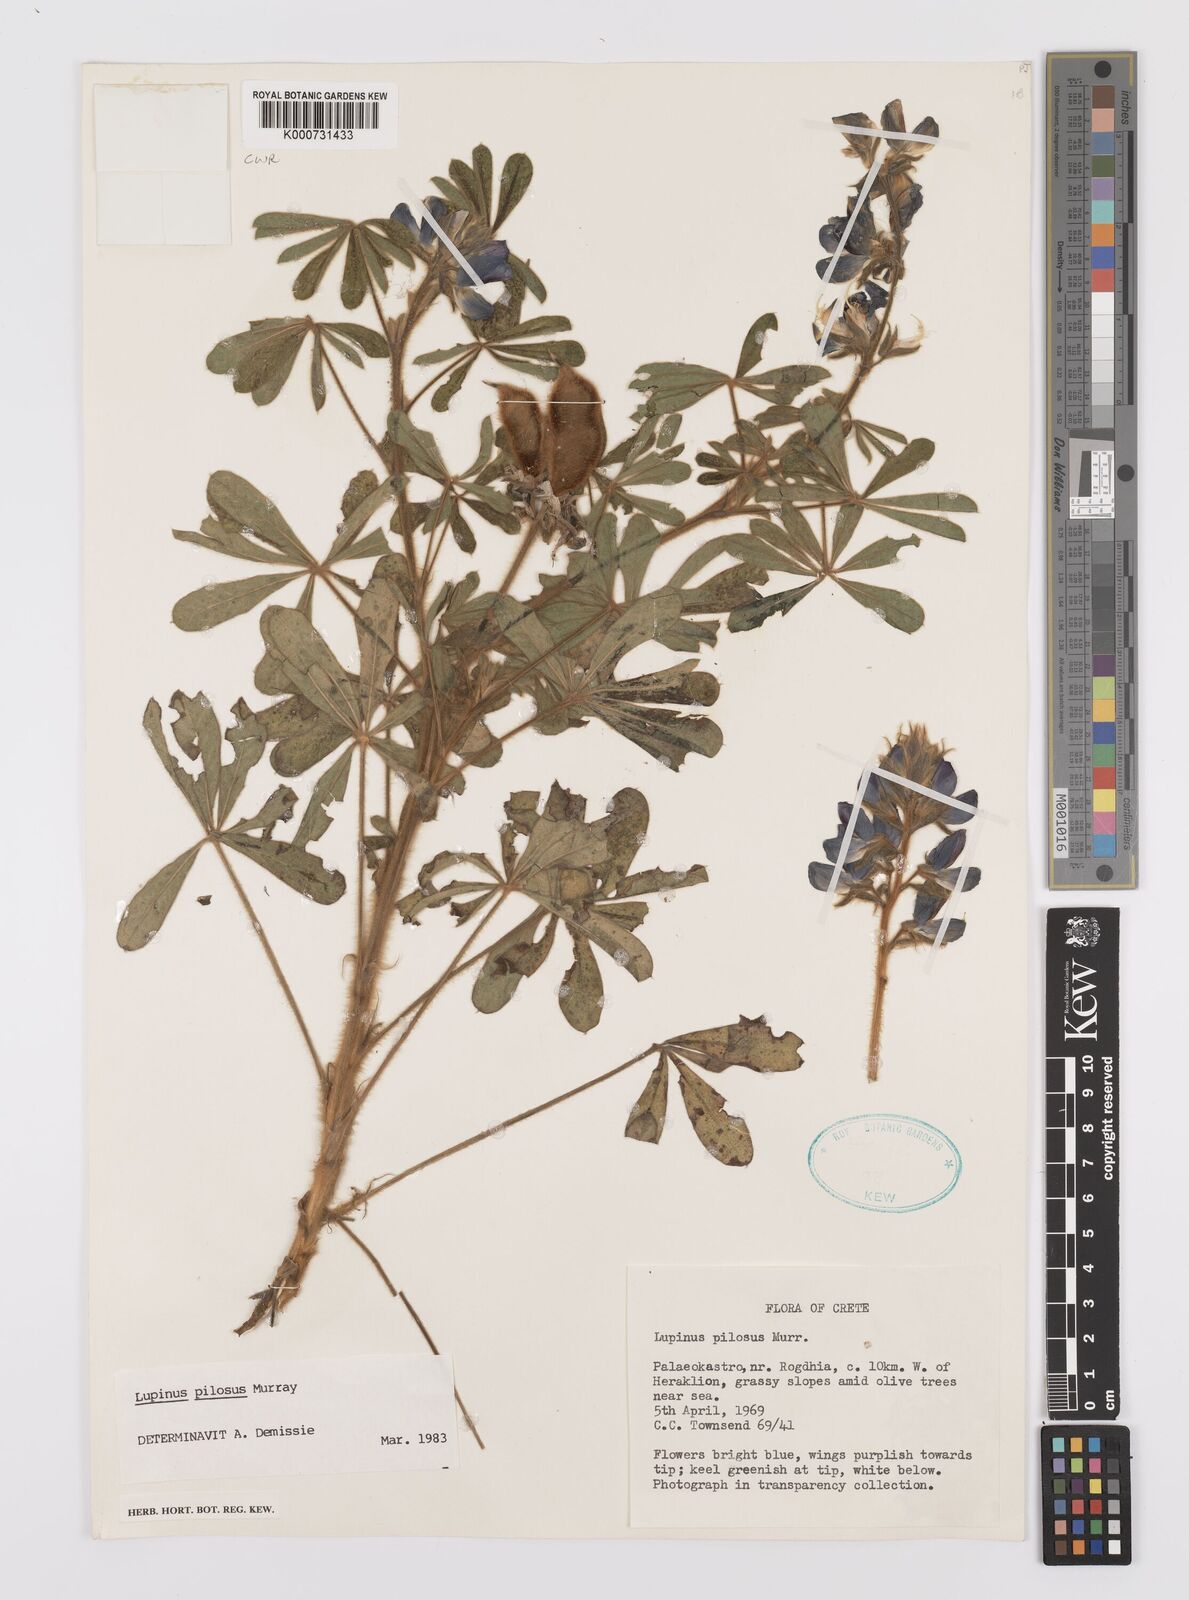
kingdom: Plantae
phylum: Tracheophyta
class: Magnoliopsida
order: Fabales
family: Fabaceae
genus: Lupinus
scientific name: Lupinus
